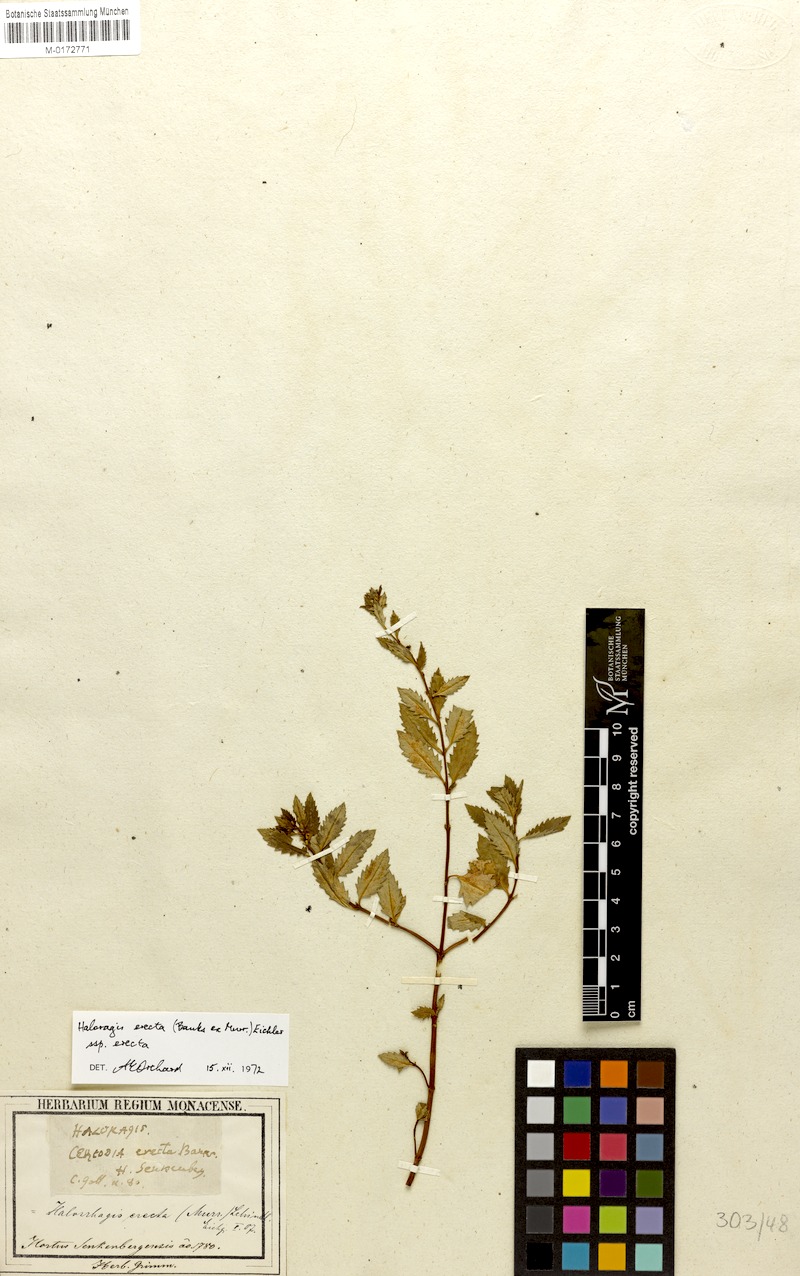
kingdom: Plantae
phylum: Tracheophyta
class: Magnoliopsida
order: Saxifragales
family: Haloragaceae
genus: Haloragis
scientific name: Haloragis erecta
